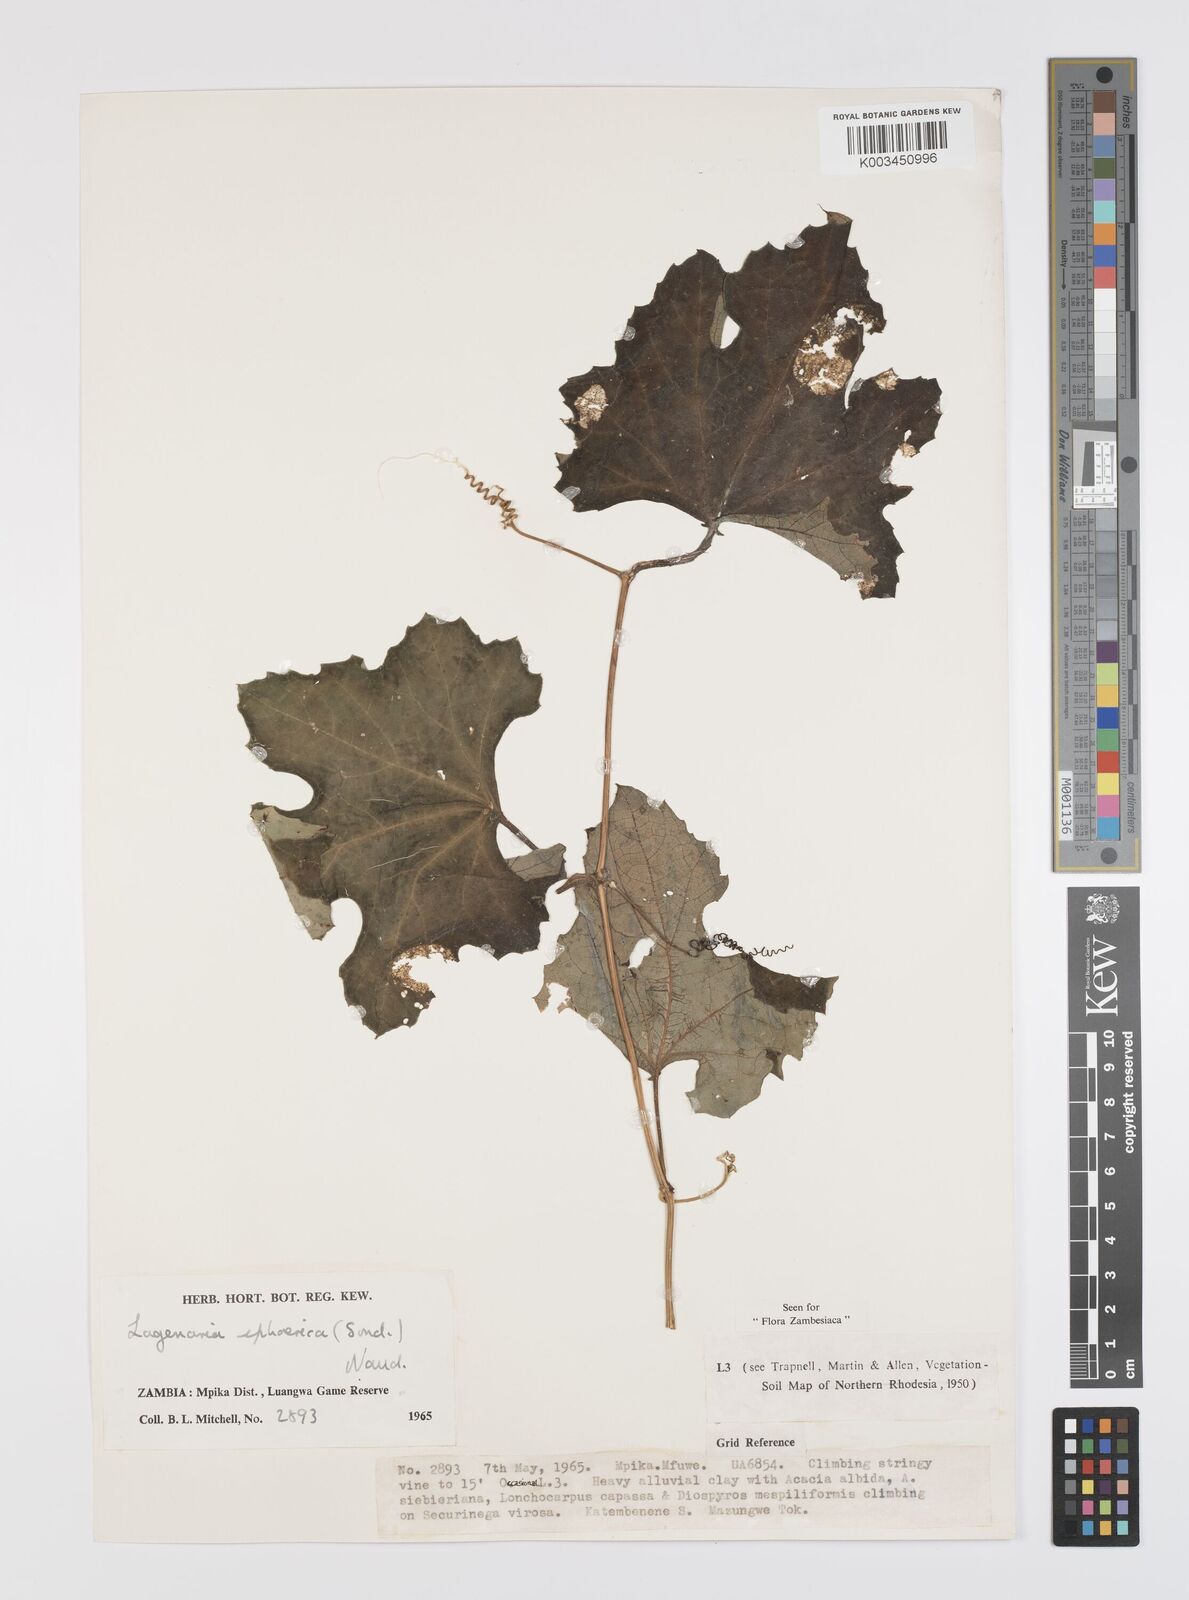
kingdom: Plantae
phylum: Tracheophyta
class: Magnoliopsida
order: Cucurbitales
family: Cucurbitaceae
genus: Lagenaria
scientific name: Lagenaria sphaerica
